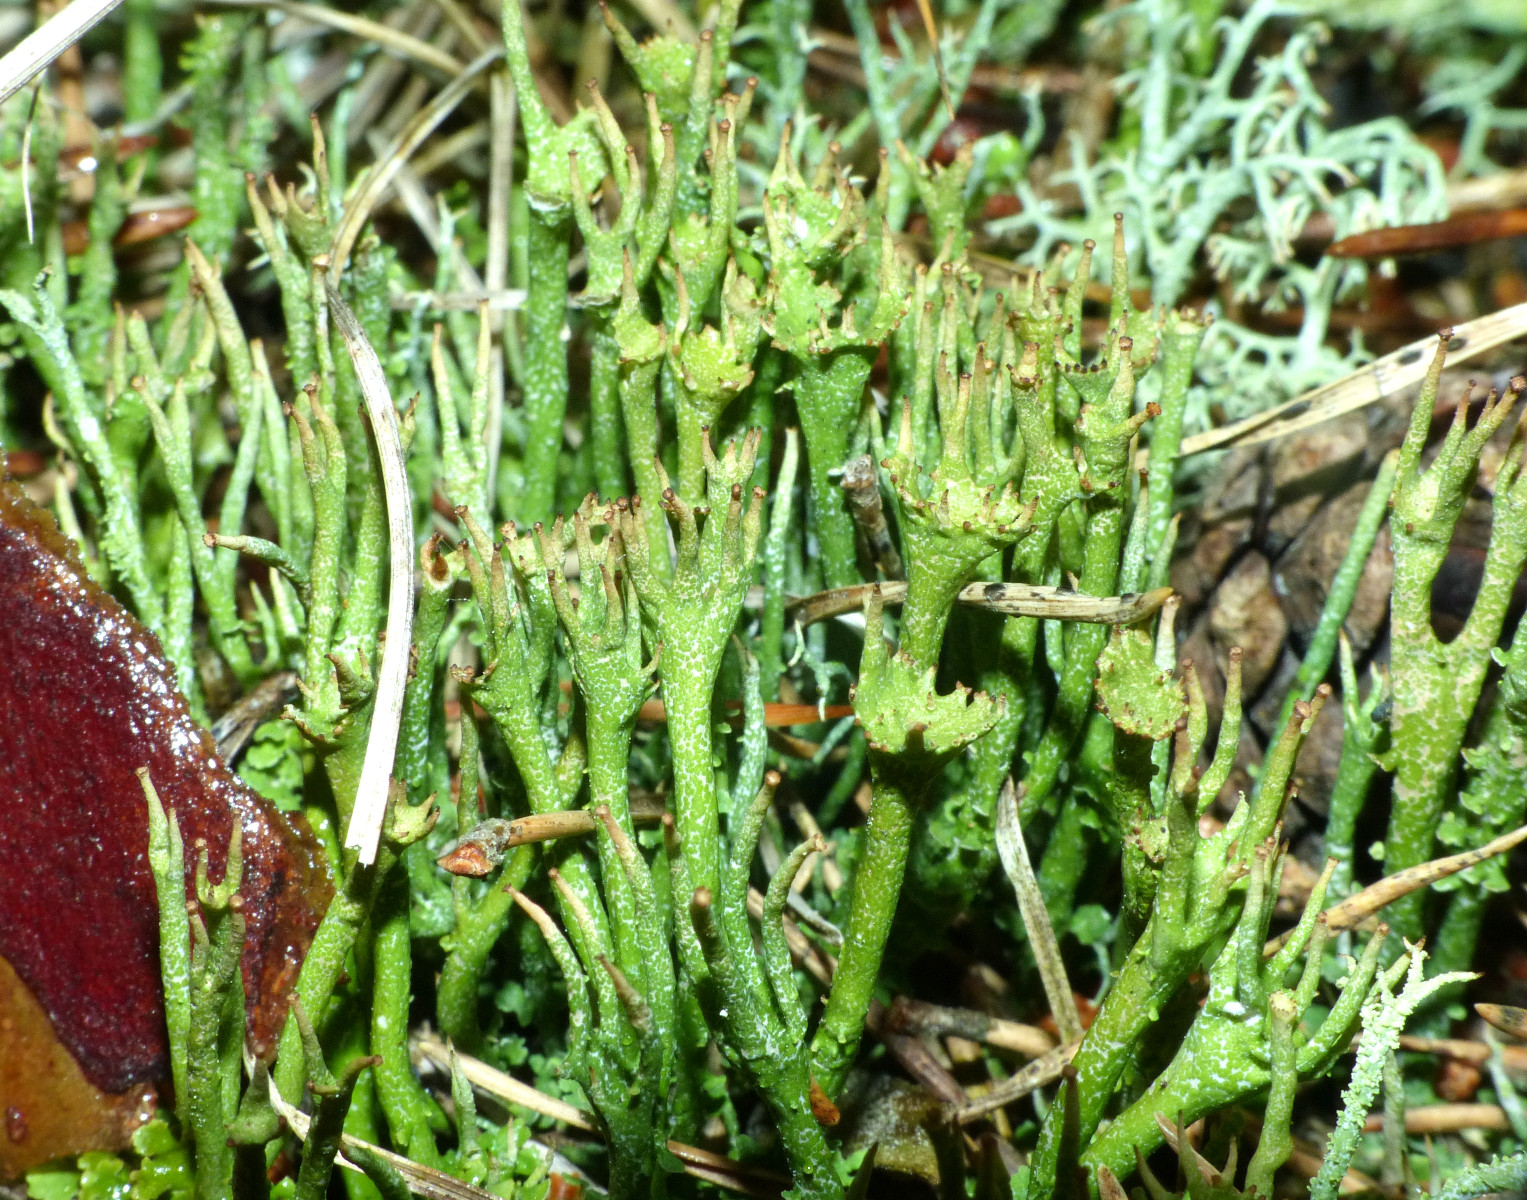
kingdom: Fungi
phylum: Ascomycota
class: Lecanoromycetes
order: Lecanorales
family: Cladoniaceae
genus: Cladonia
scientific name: Cladonia gracilis
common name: slank bægerlav
